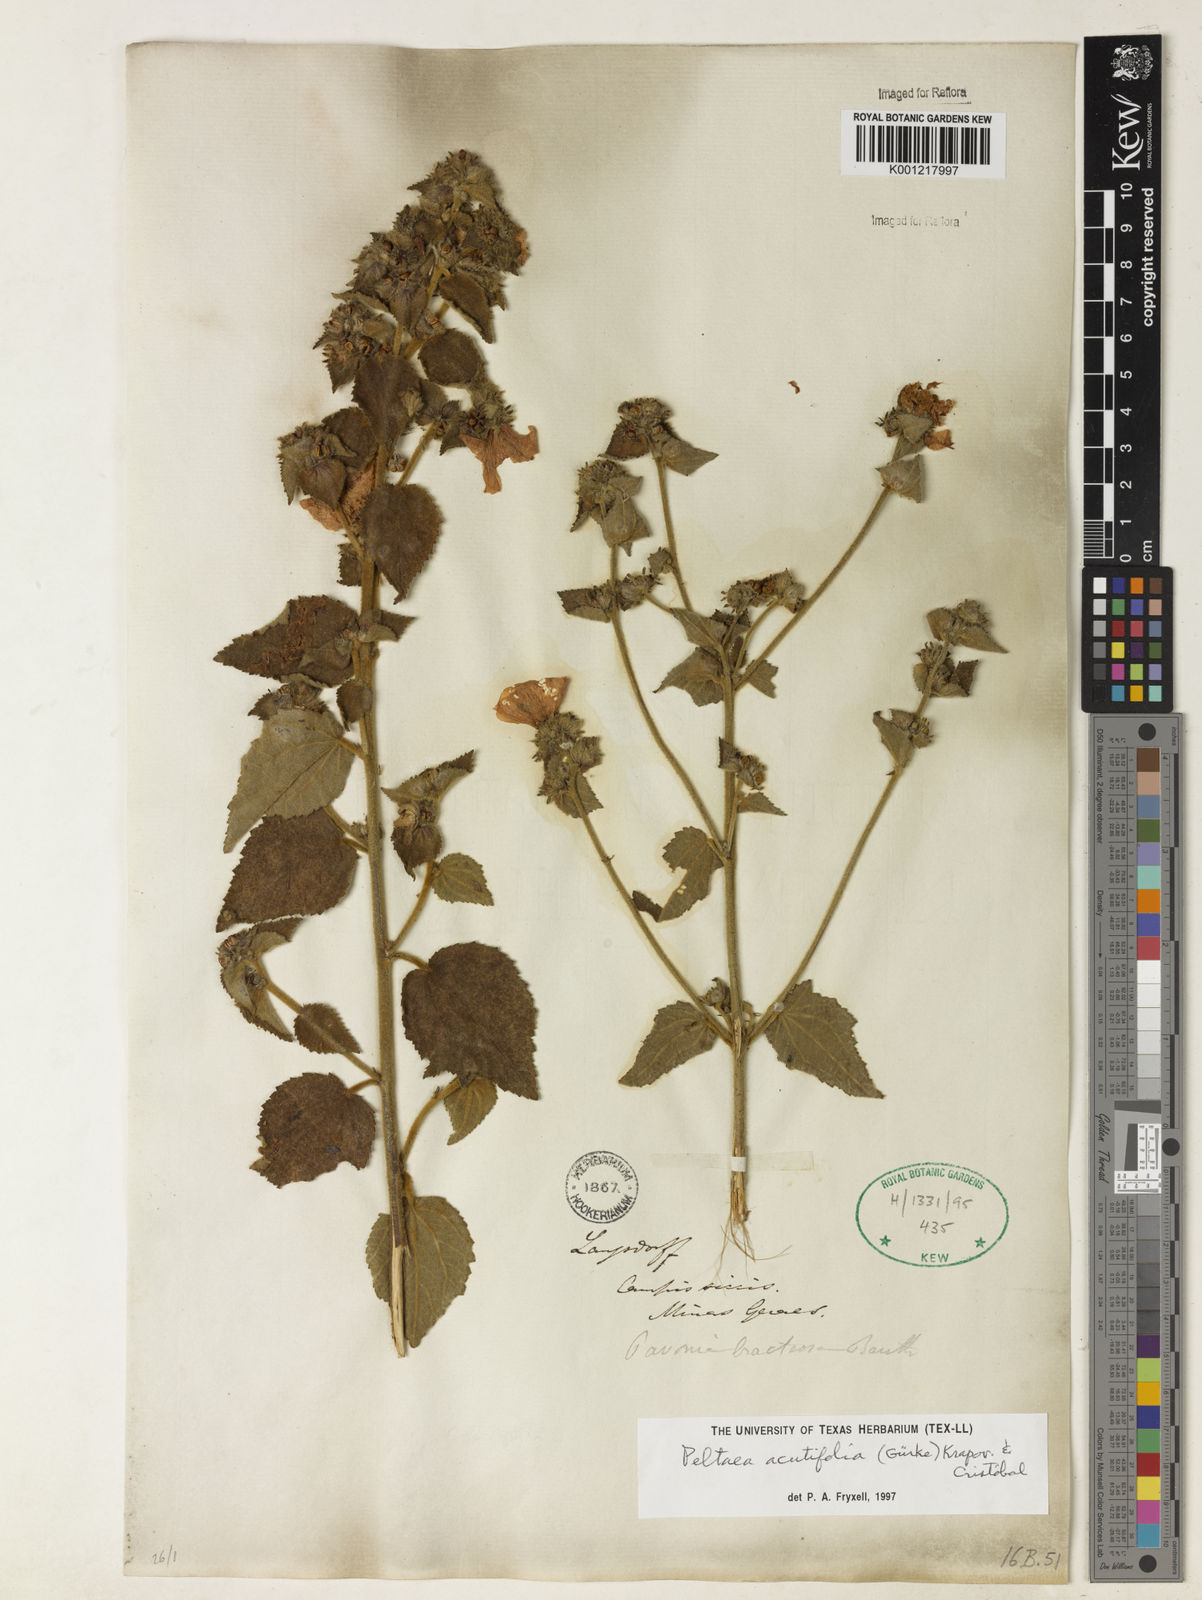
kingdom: Plantae
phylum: Tracheophyta
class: Magnoliopsida
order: Malvales
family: Malvaceae
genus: Peltaea
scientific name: Peltaea
